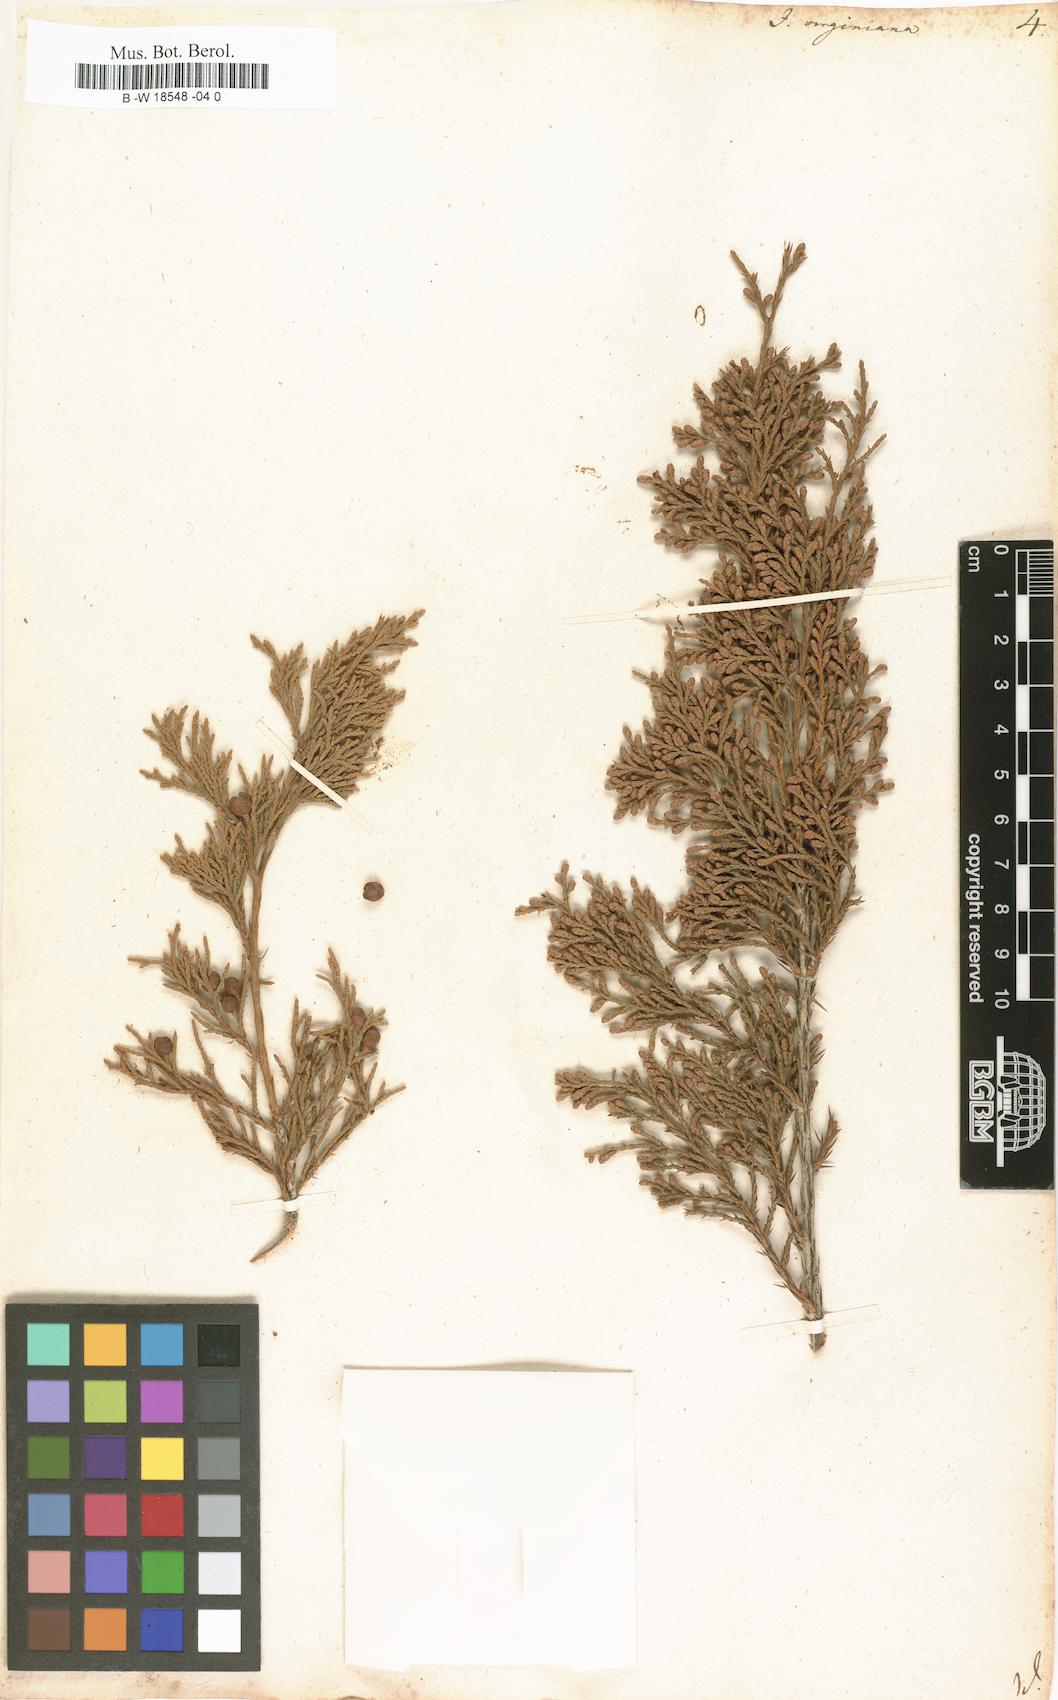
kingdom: Plantae
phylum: Tracheophyta
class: Pinopsida
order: Pinales
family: Cupressaceae
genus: Juniperus
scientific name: Juniperus virginiana
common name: Red juniper
